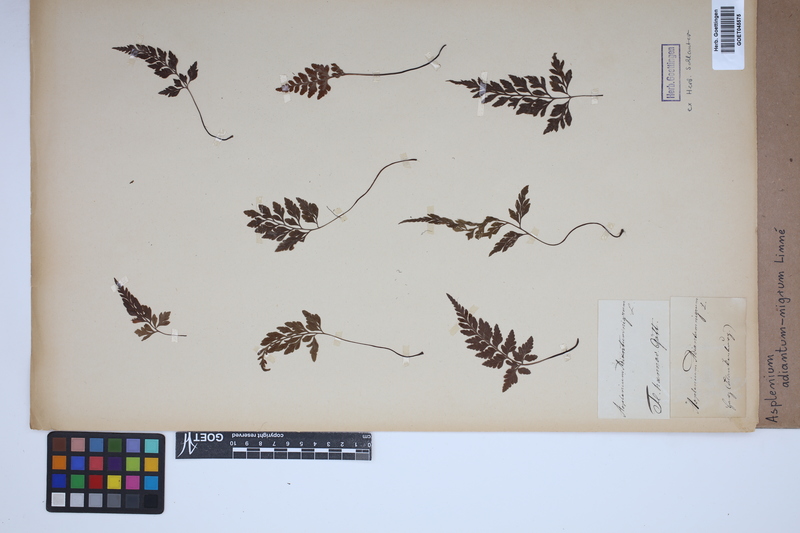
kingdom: Plantae
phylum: Tracheophyta
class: Polypodiopsida
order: Polypodiales
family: Aspleniaceae
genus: Asplenium
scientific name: Asplenium adiantum-nigrum
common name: Black spleenwort
